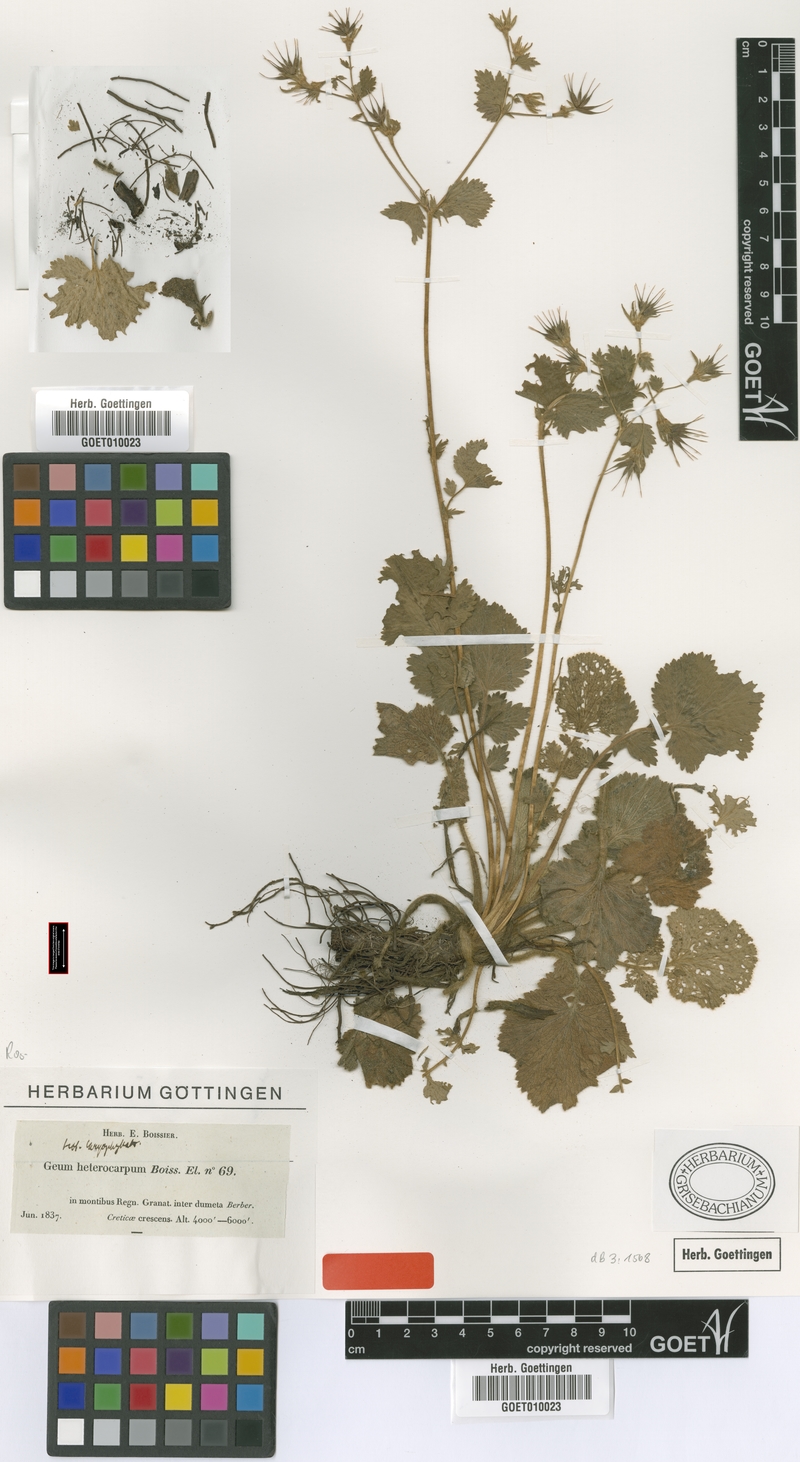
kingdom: Plantae
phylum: Tracheophyta
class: Magnoliopsida
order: Rosales
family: Rosaceae
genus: Geum
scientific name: Geum heterocarpum
